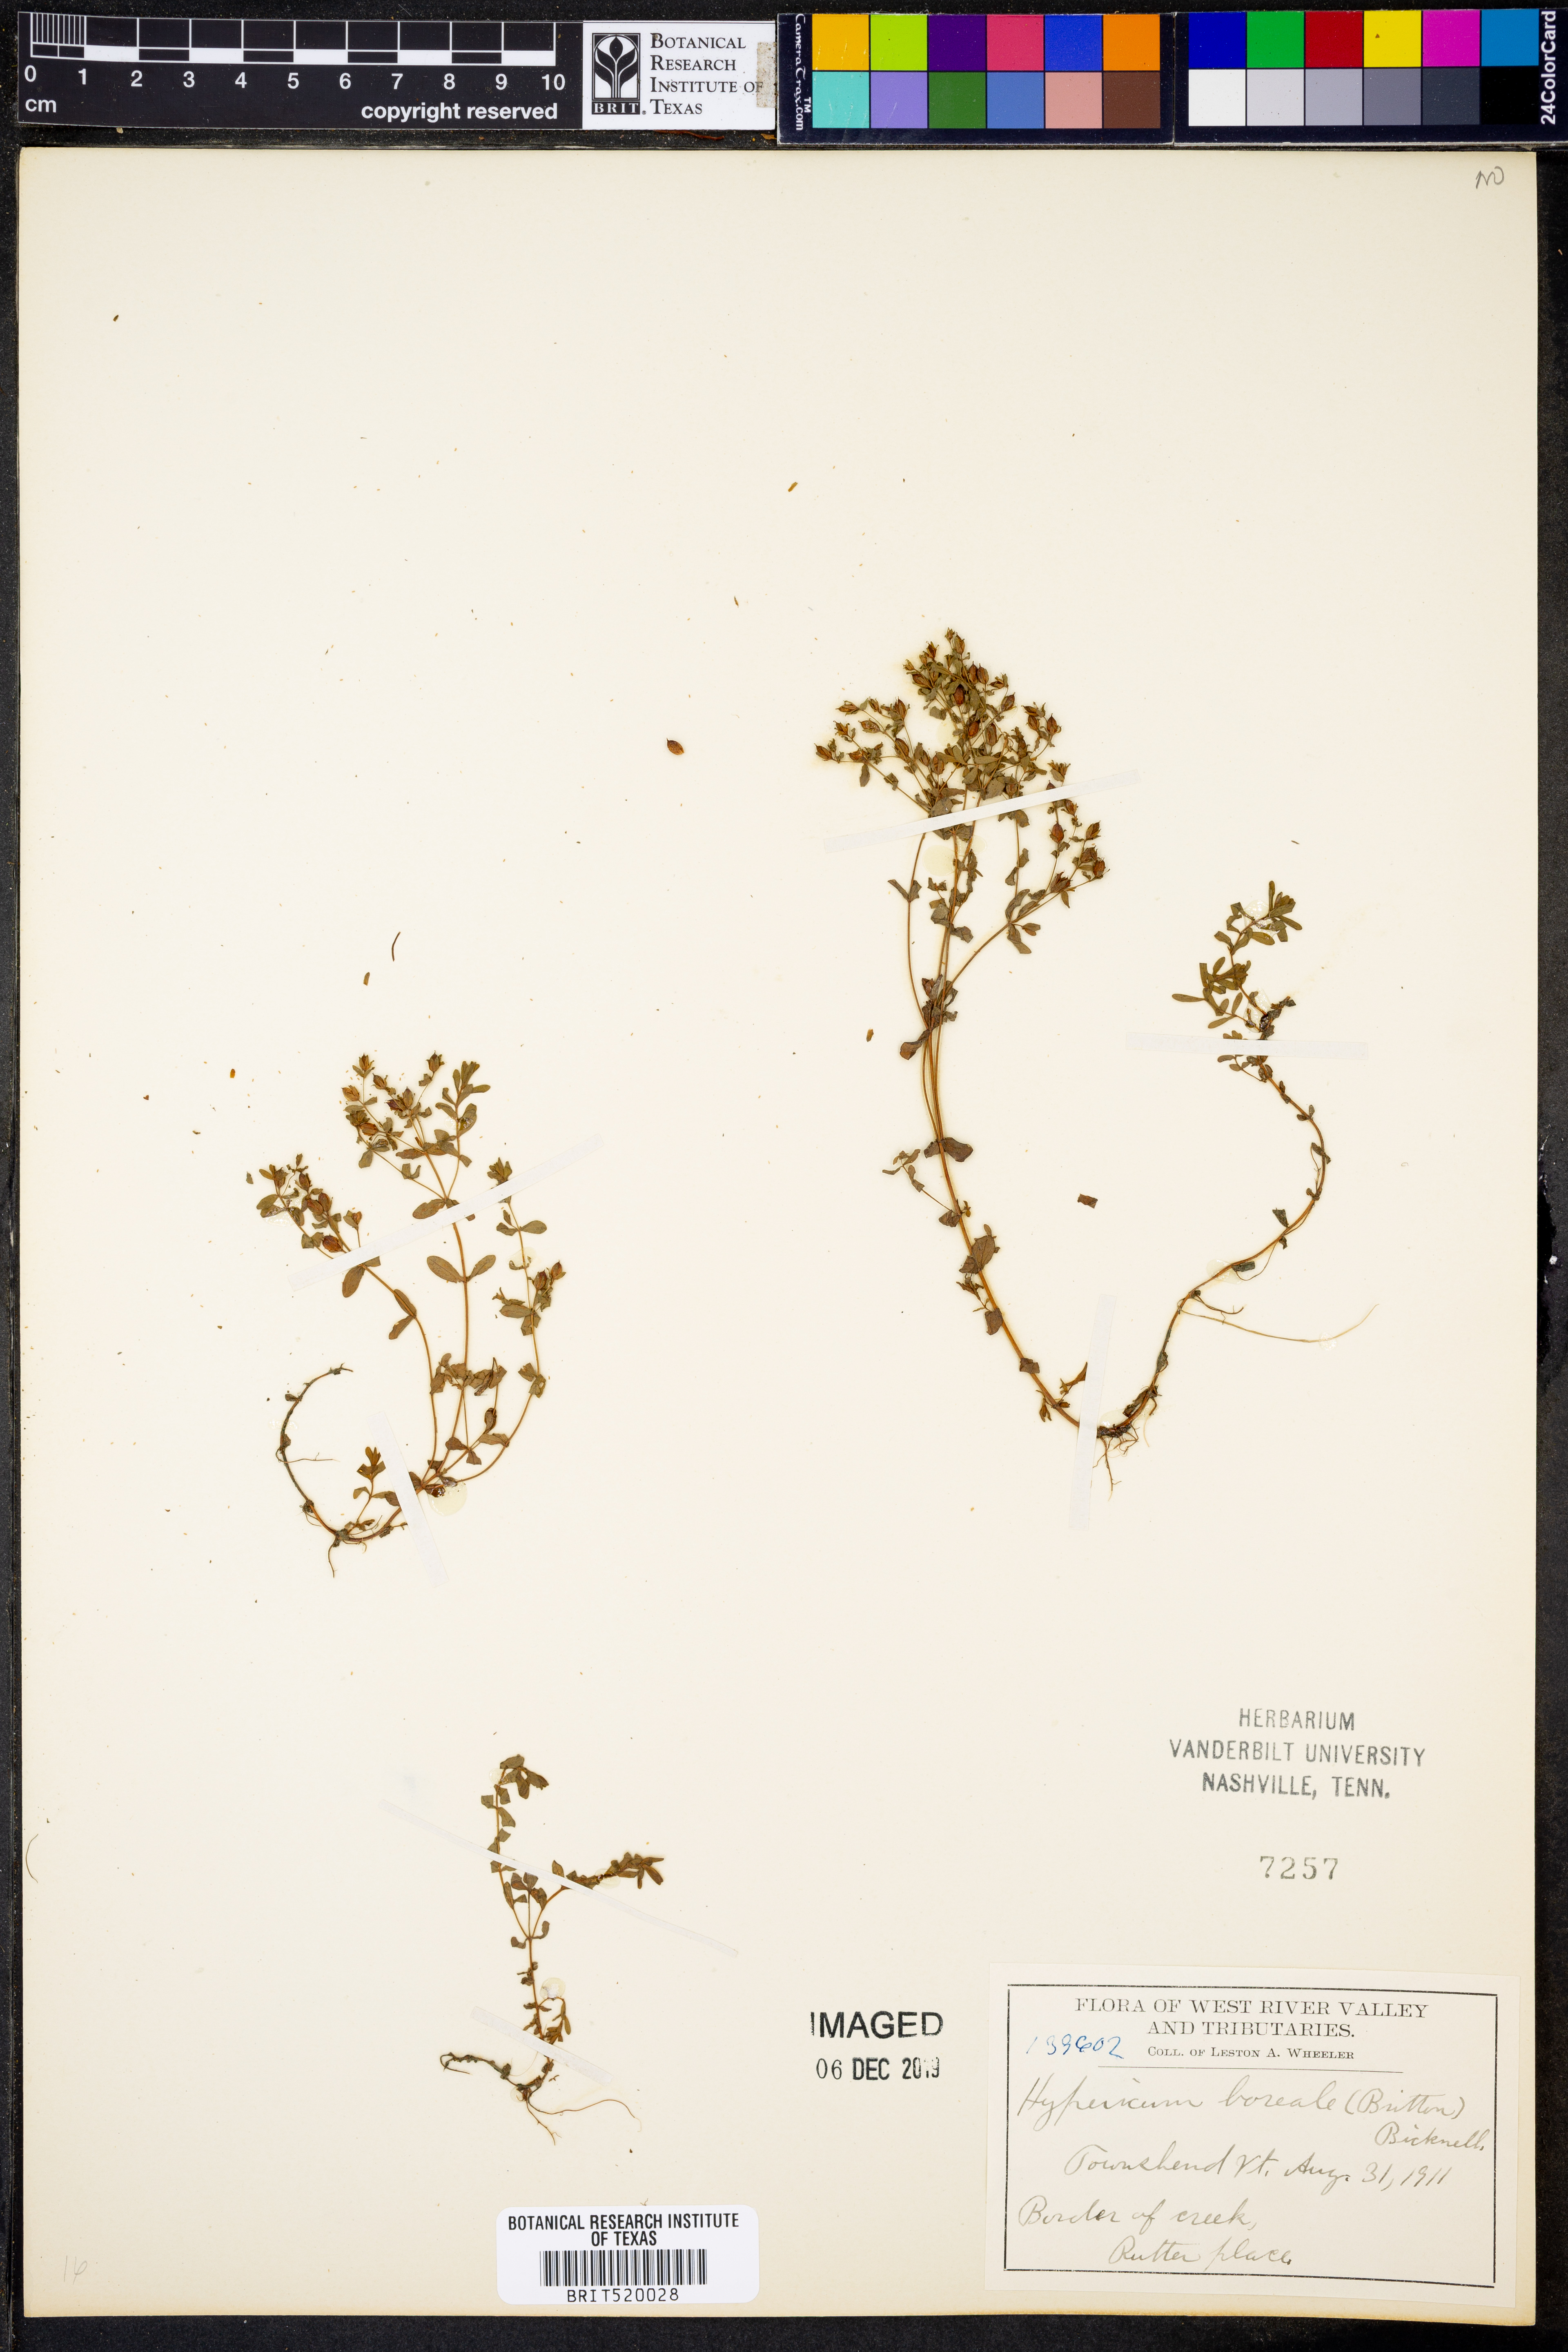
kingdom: Plantae
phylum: Tracheophyta
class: Magnoliopsida
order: Malpighiales
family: Hypericaceae
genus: Hypericum
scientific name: Hypericum boreale
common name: Northern bog st. john's-wort
